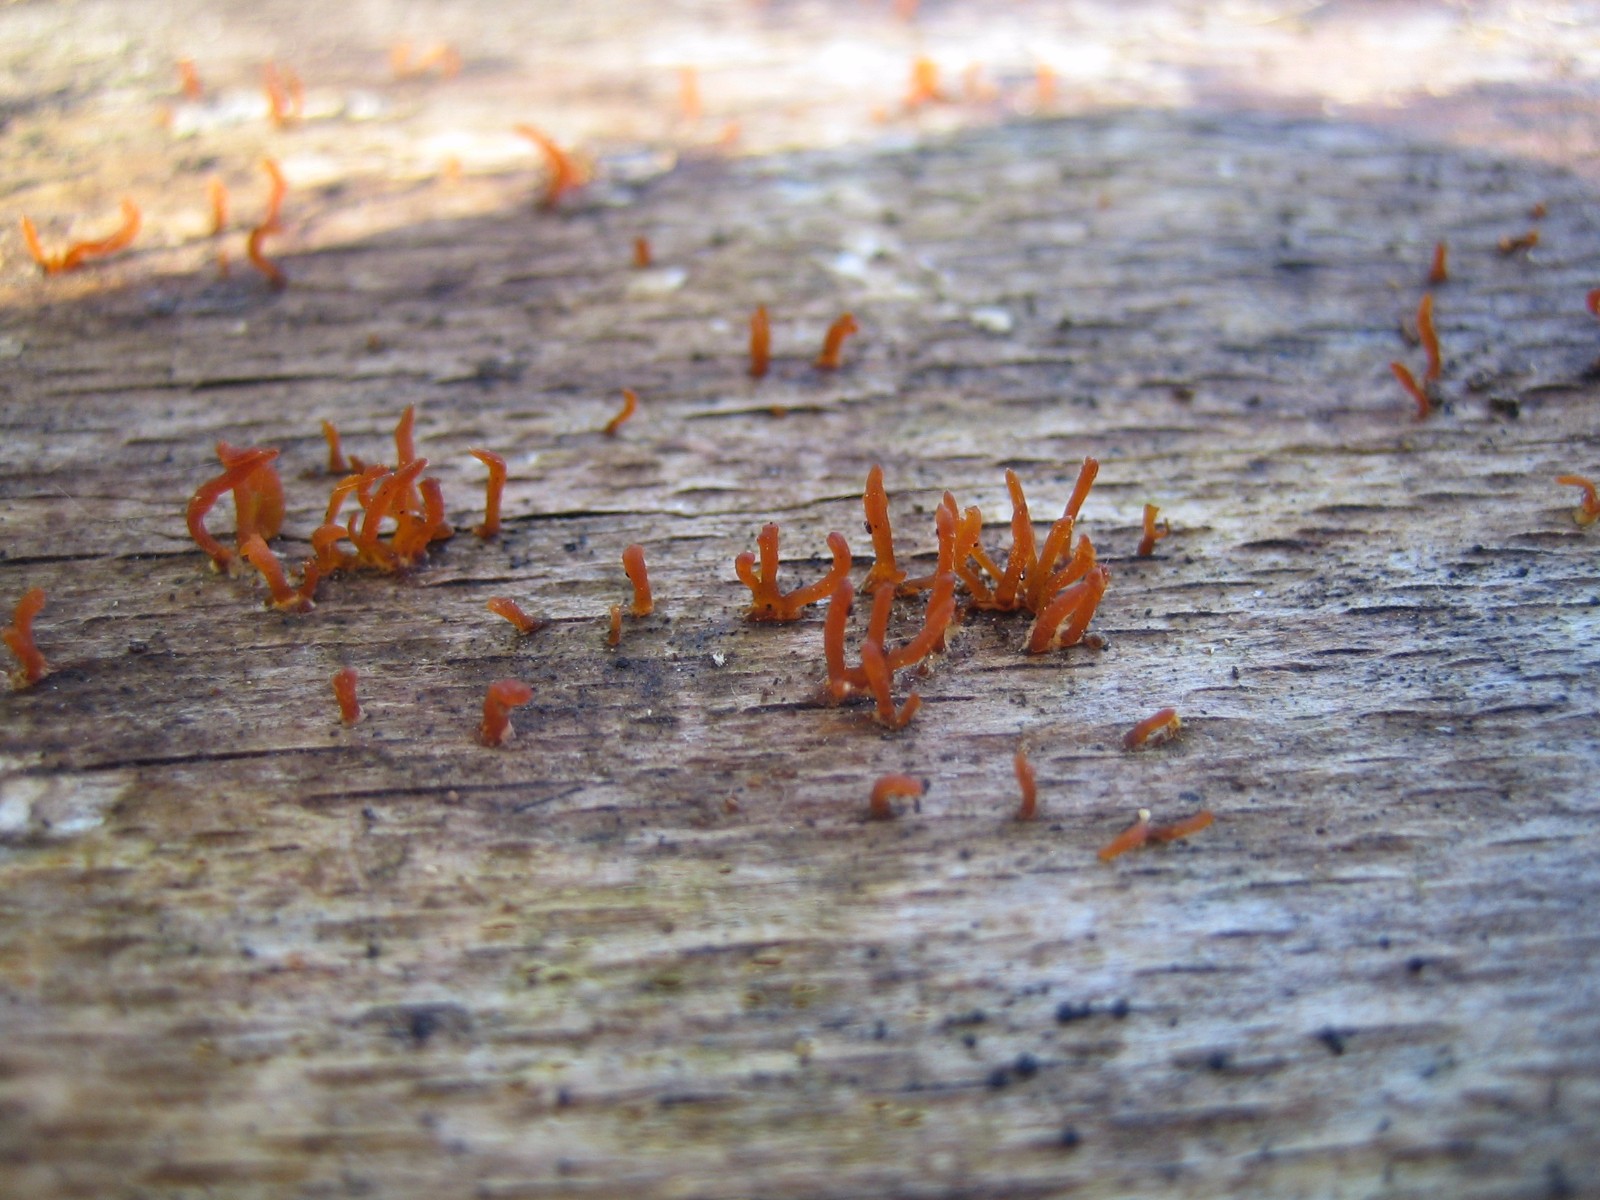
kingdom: Fungi
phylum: Basidiomycota
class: Dacrymycetes
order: Dacrymycetales
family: Dacrymycetaceae
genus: Calocera
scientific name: Calocera cornea
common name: liden guldgaffel
